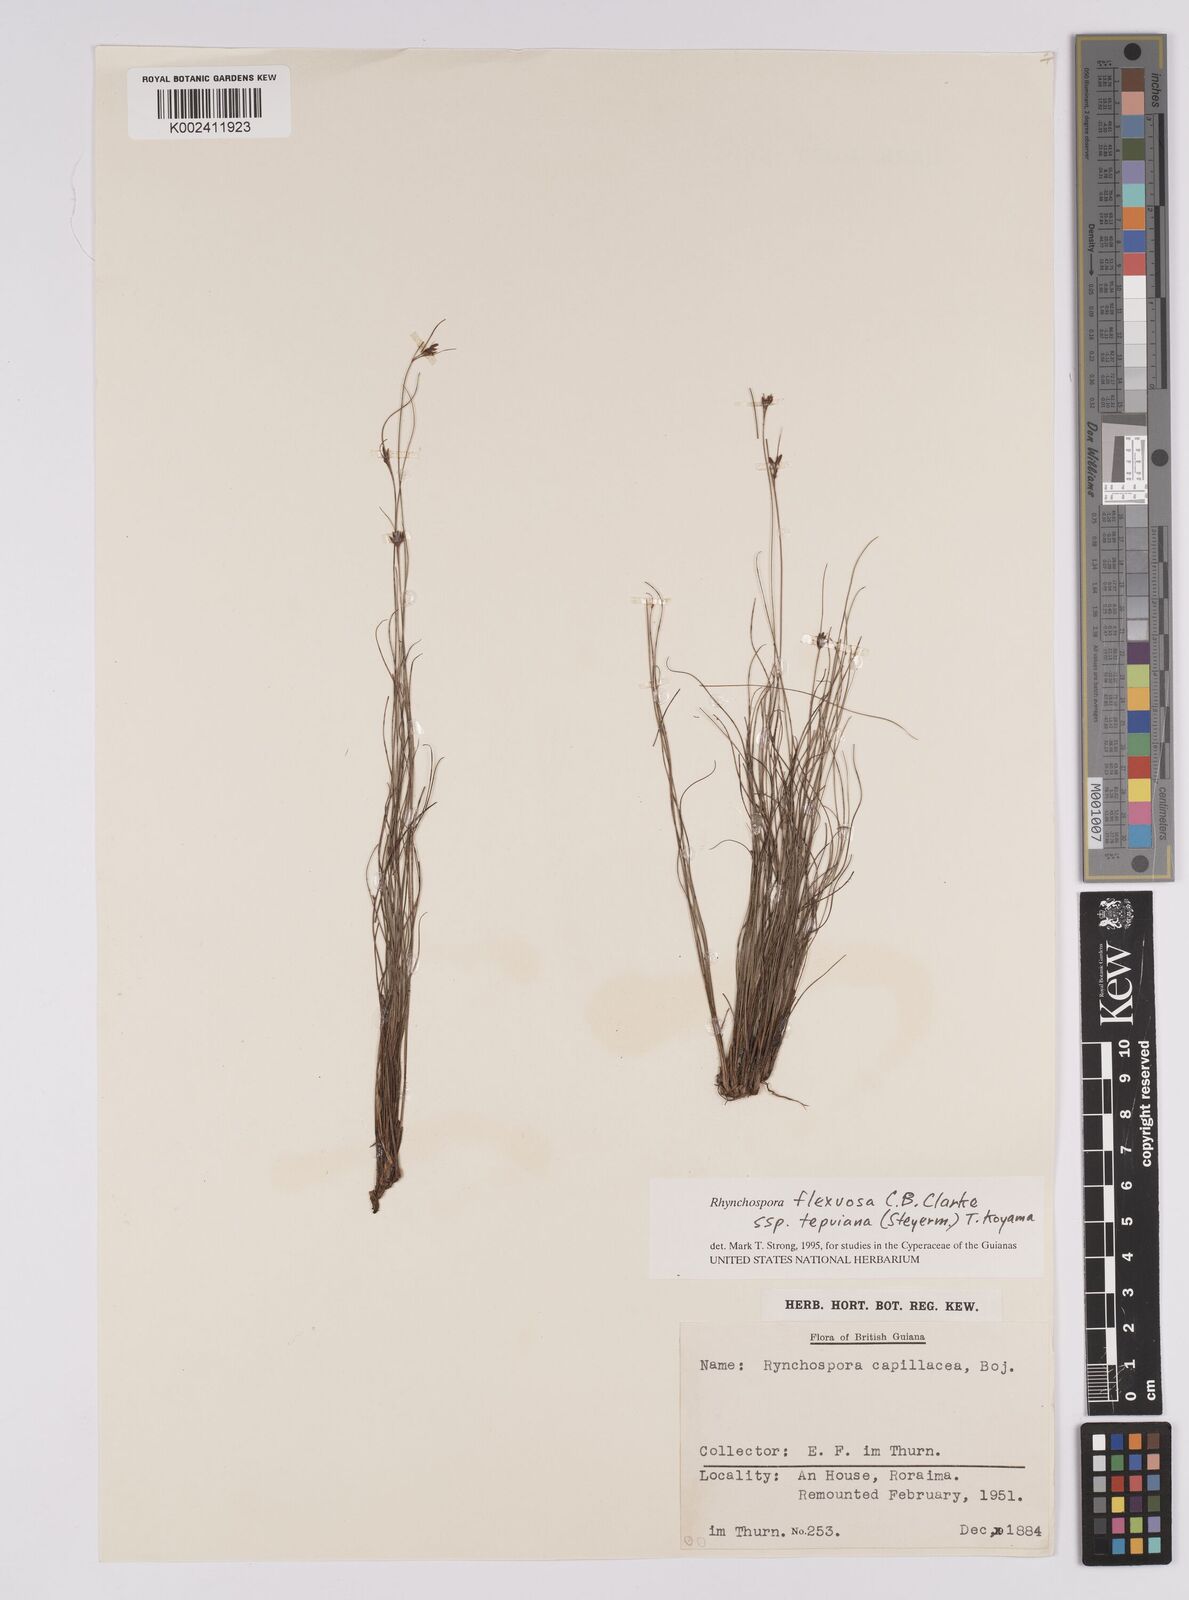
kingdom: Plantae
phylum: Tracheophyta
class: Liliopsida
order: Poales
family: Cyperaceae
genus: Rhynchospora
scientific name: Rhynchospora stenophylla
